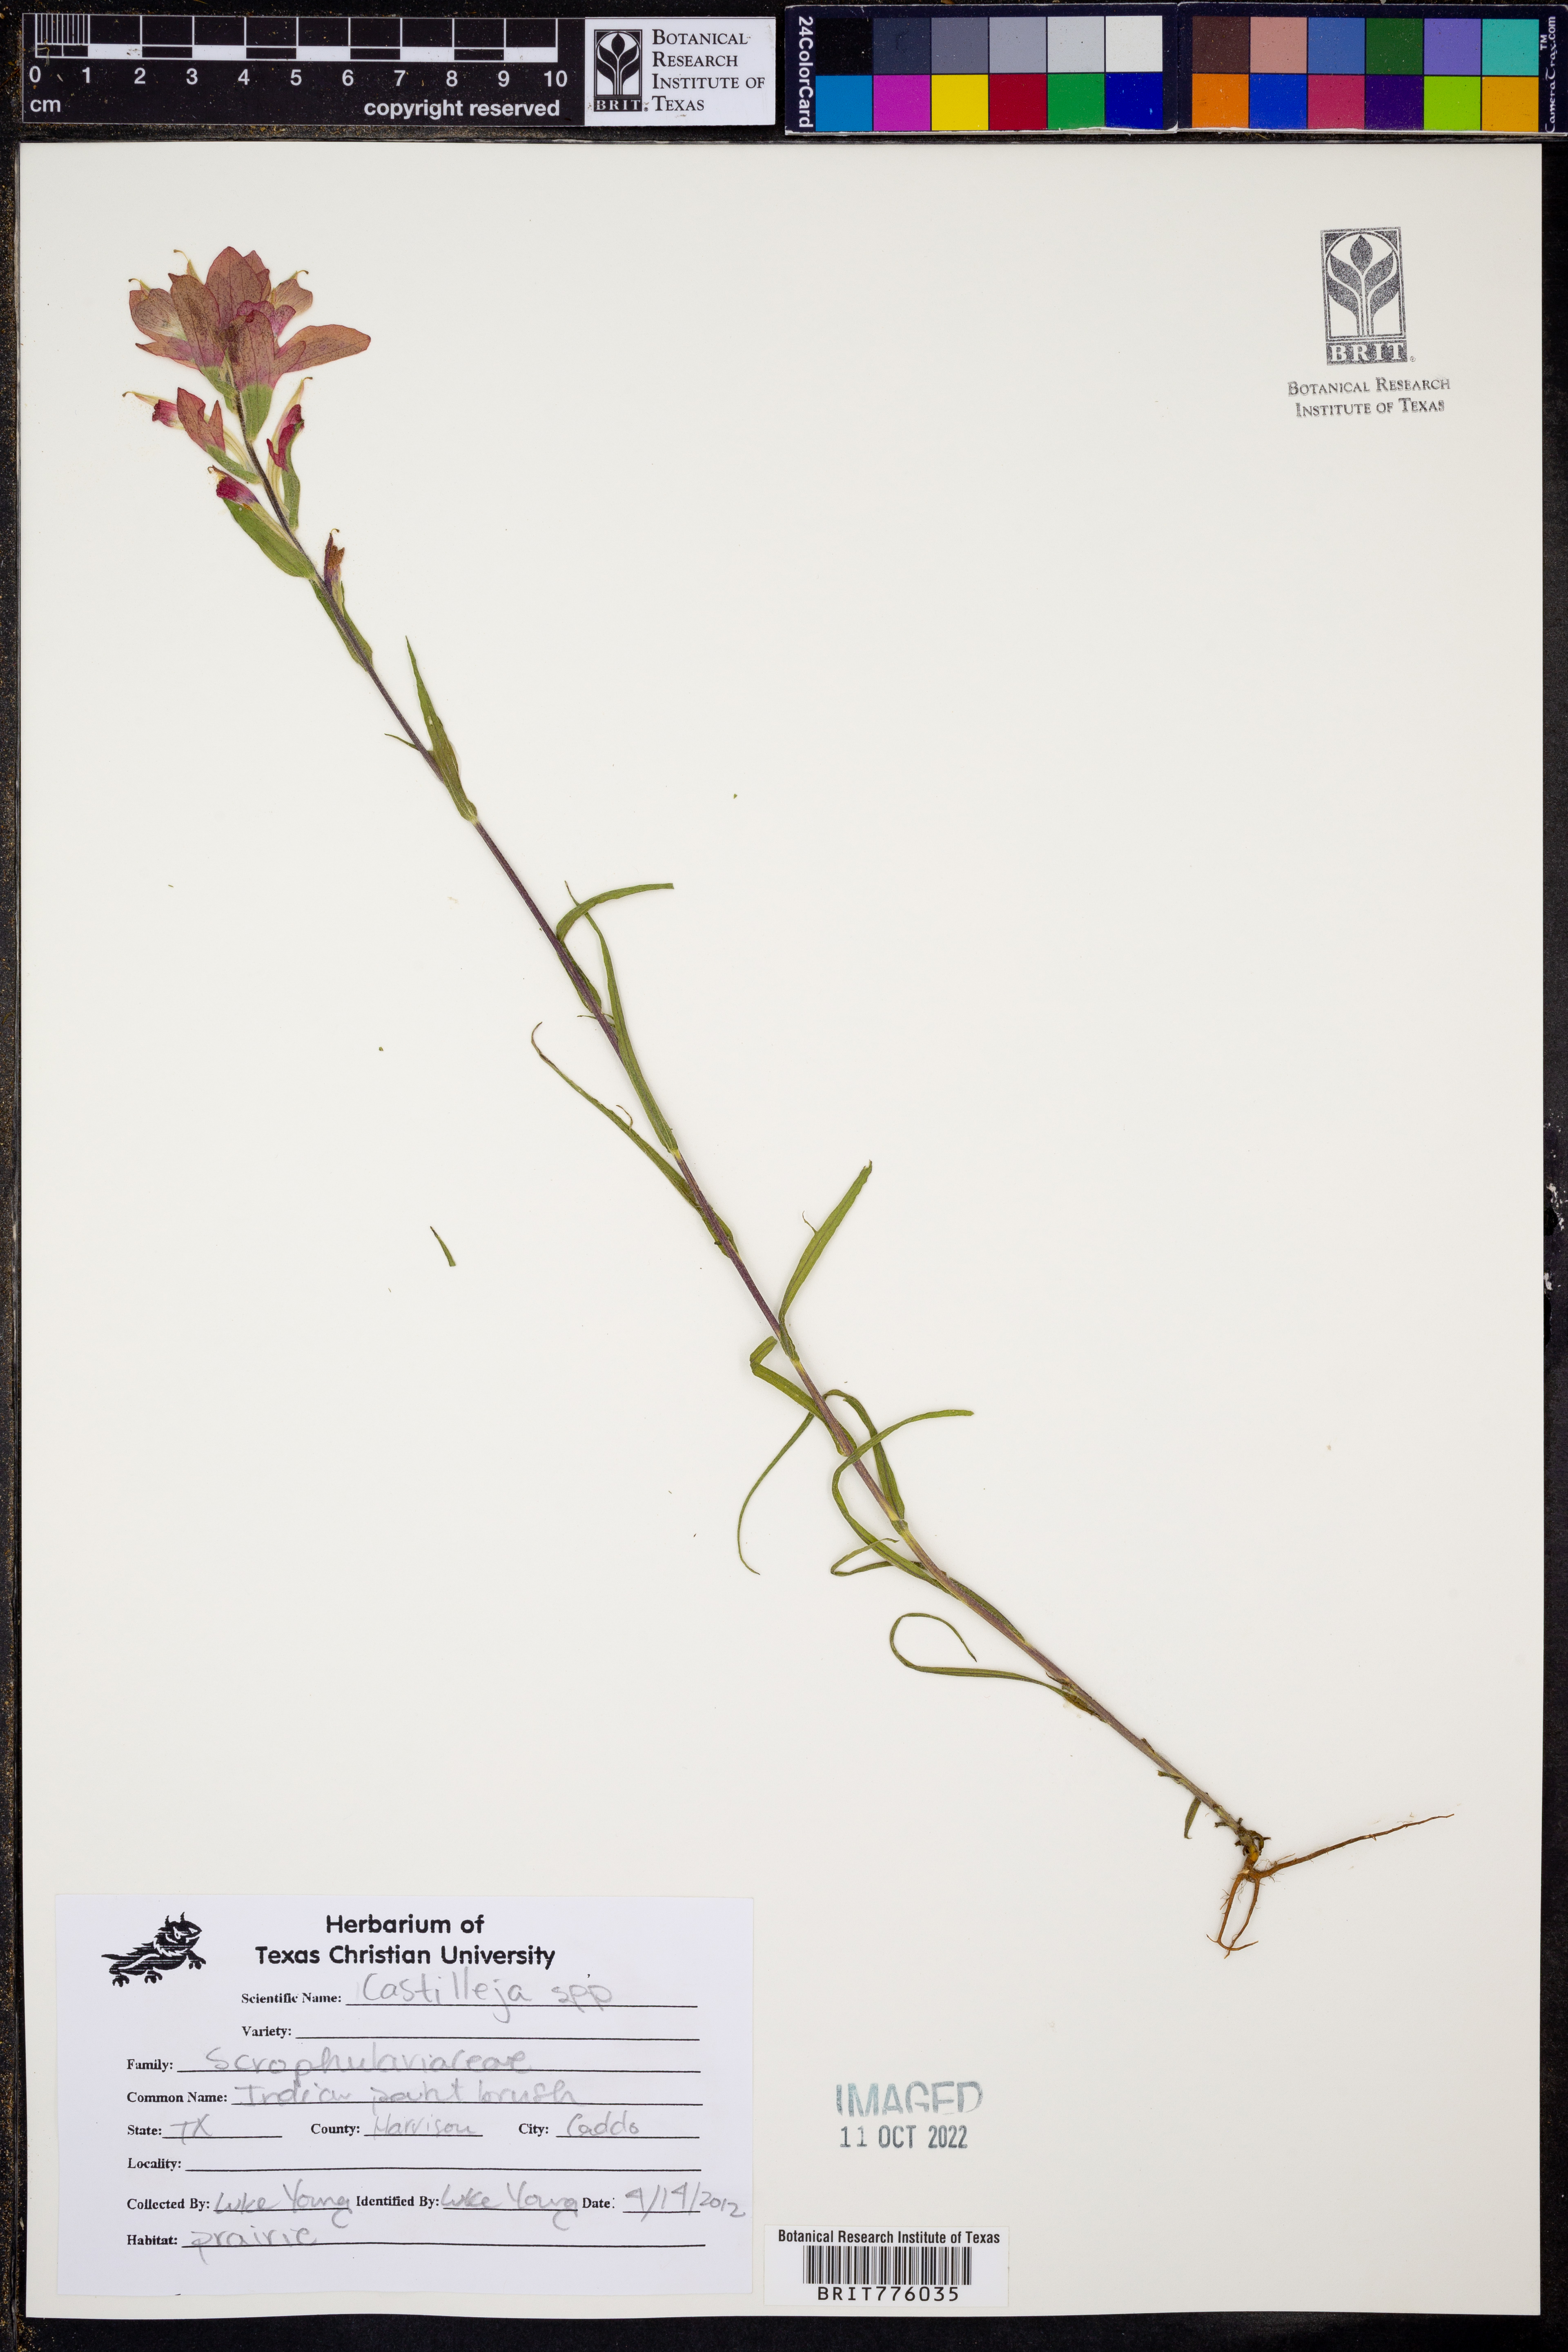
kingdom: Plantae
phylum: Tracheophyta
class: Magnoliopsida
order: Lamiales
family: Orobanchaceae
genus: Castilleja
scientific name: Castilleja
